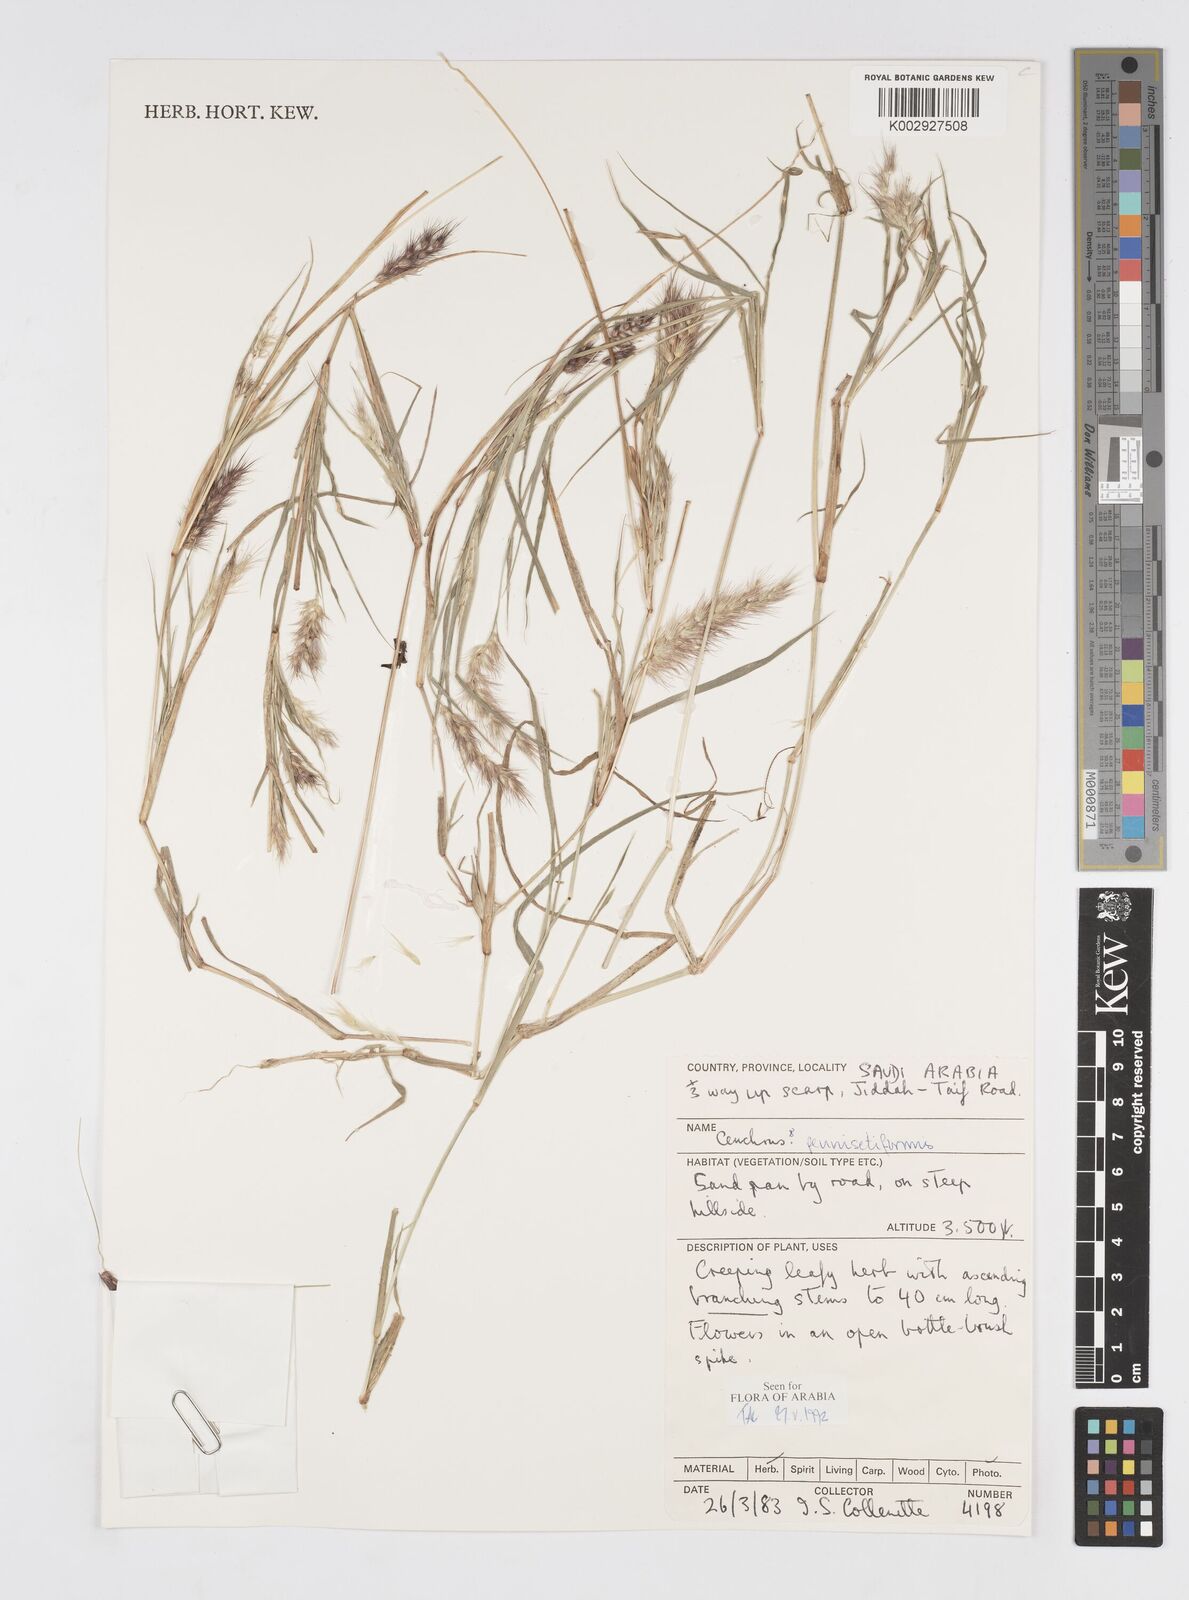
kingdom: Plantae
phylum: Tracheophyta
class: Liliopsida
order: Poales
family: Poaceae
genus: Cenchrus
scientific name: Cenchrus
